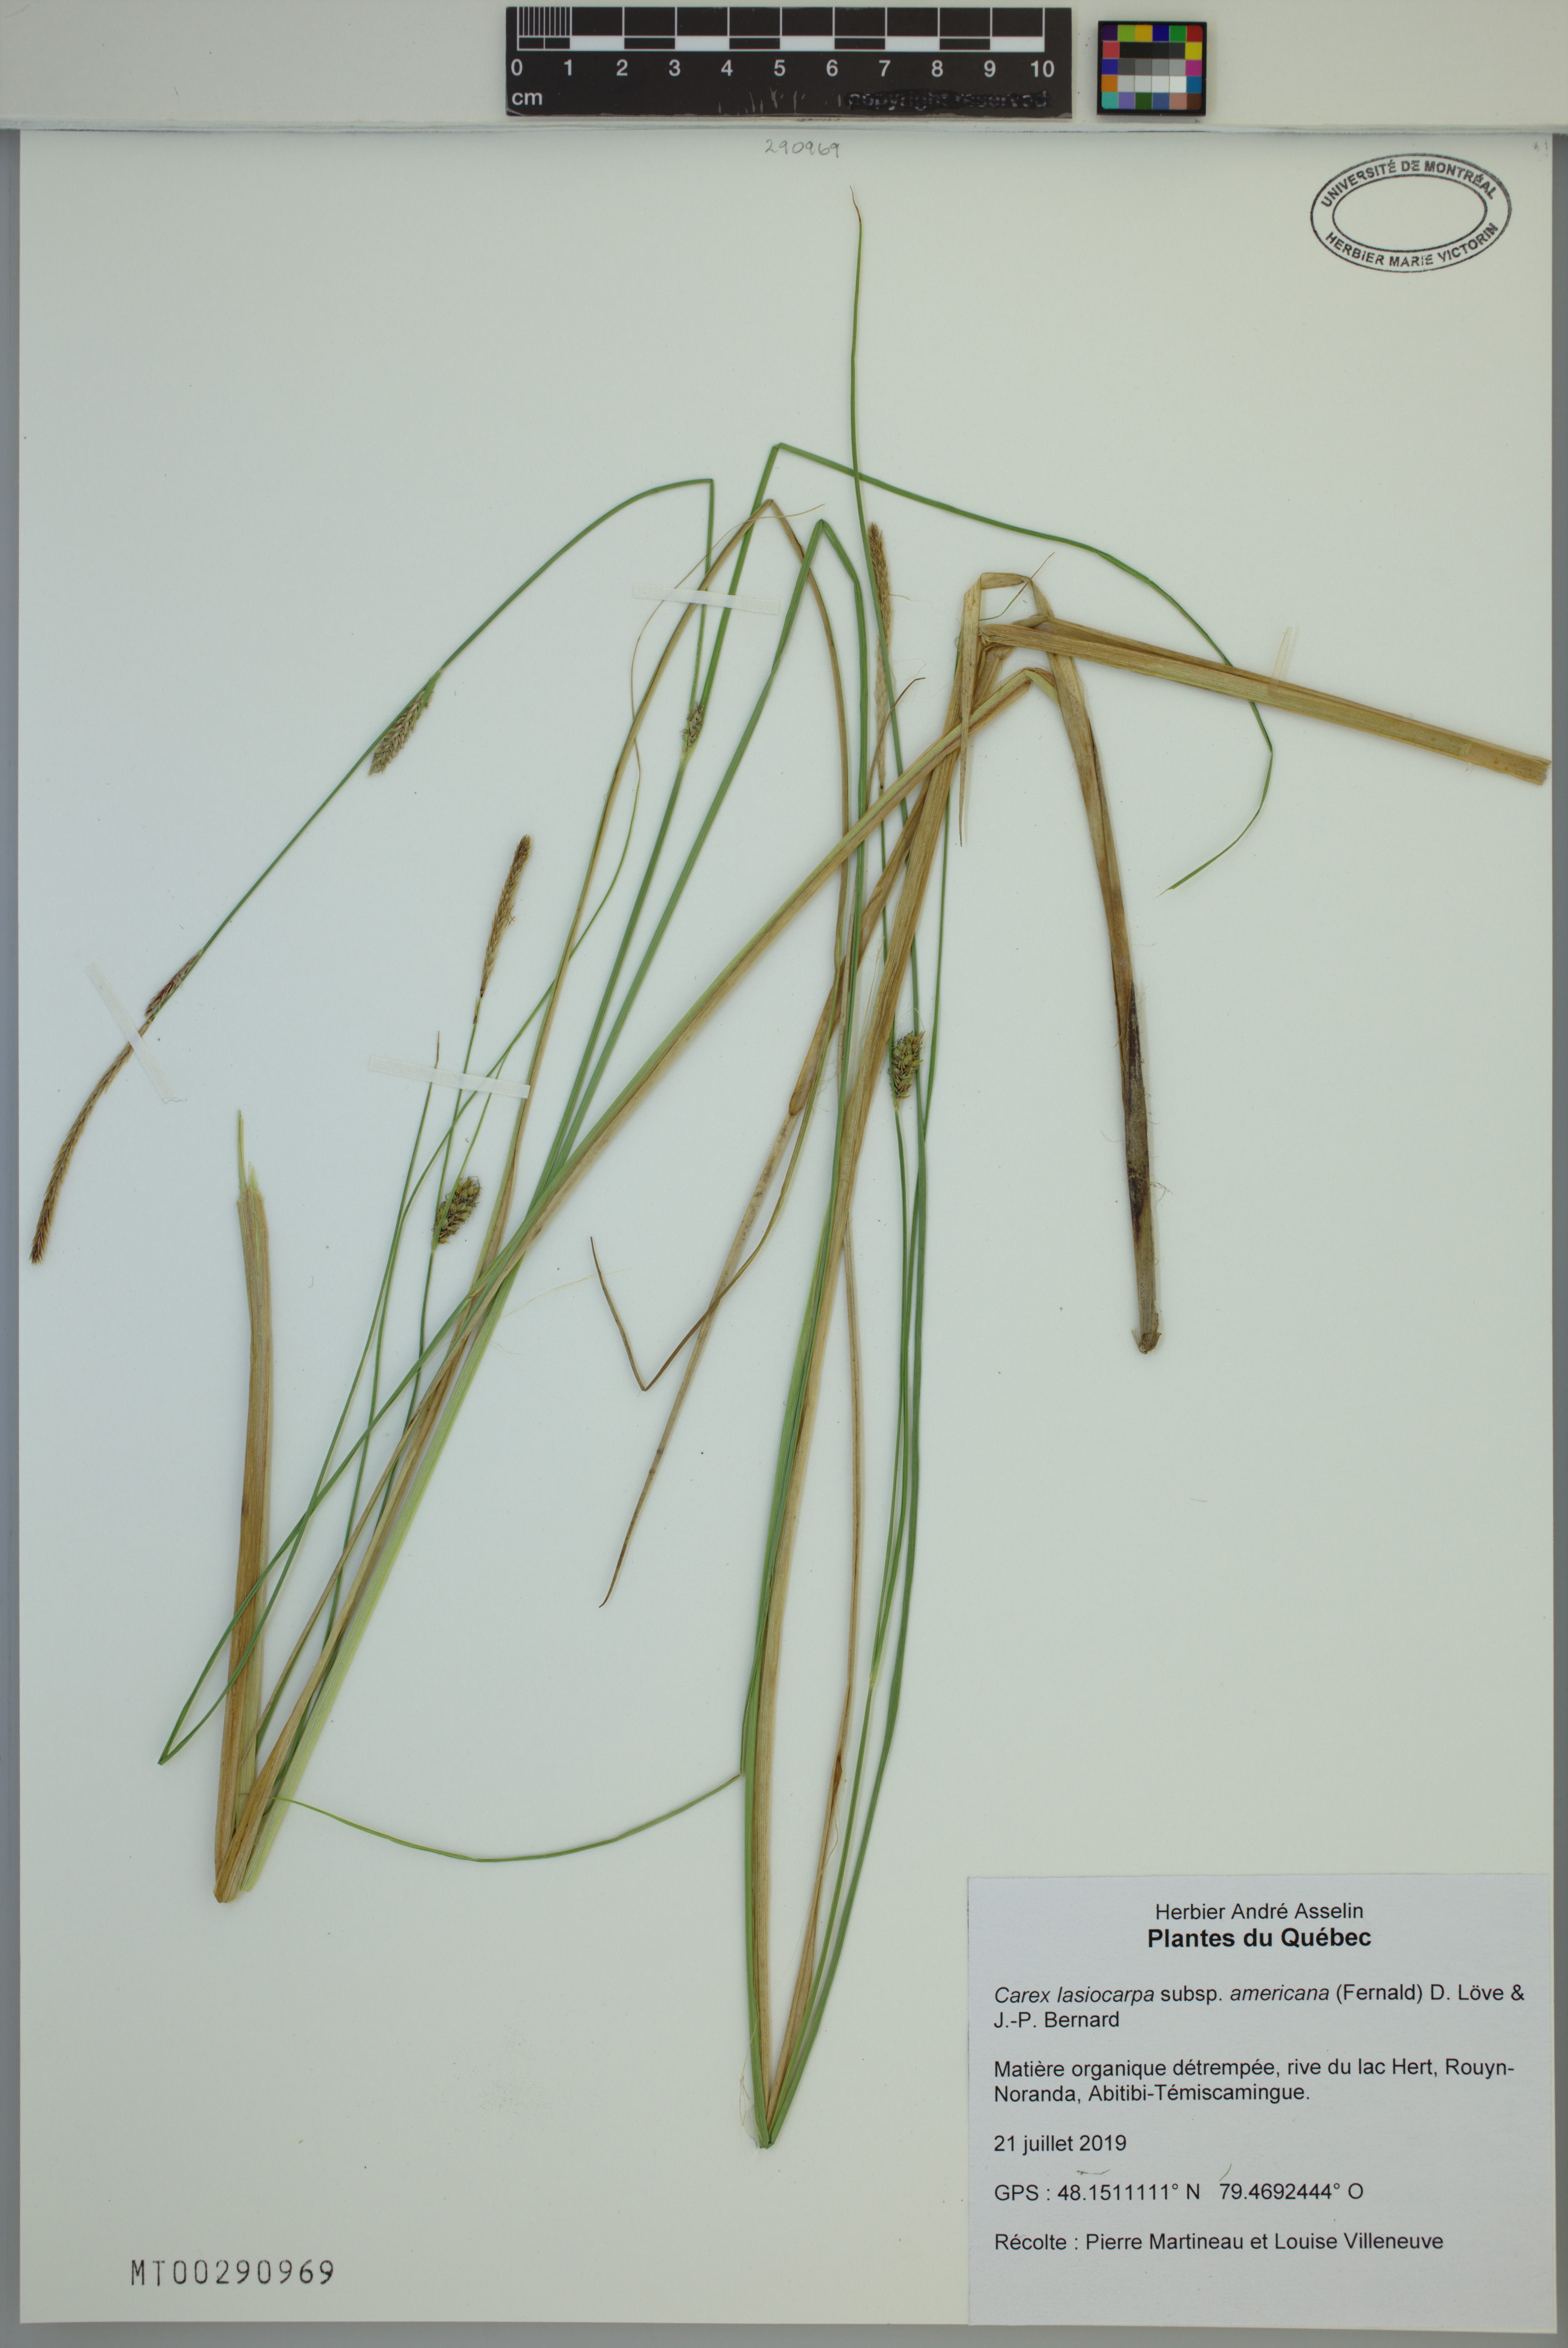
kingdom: Plantae
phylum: Tracheophyta
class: Liliopsida
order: Poales
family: Cyperaceae
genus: Carex
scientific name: Carex lasiocarpa
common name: Slender sedge
